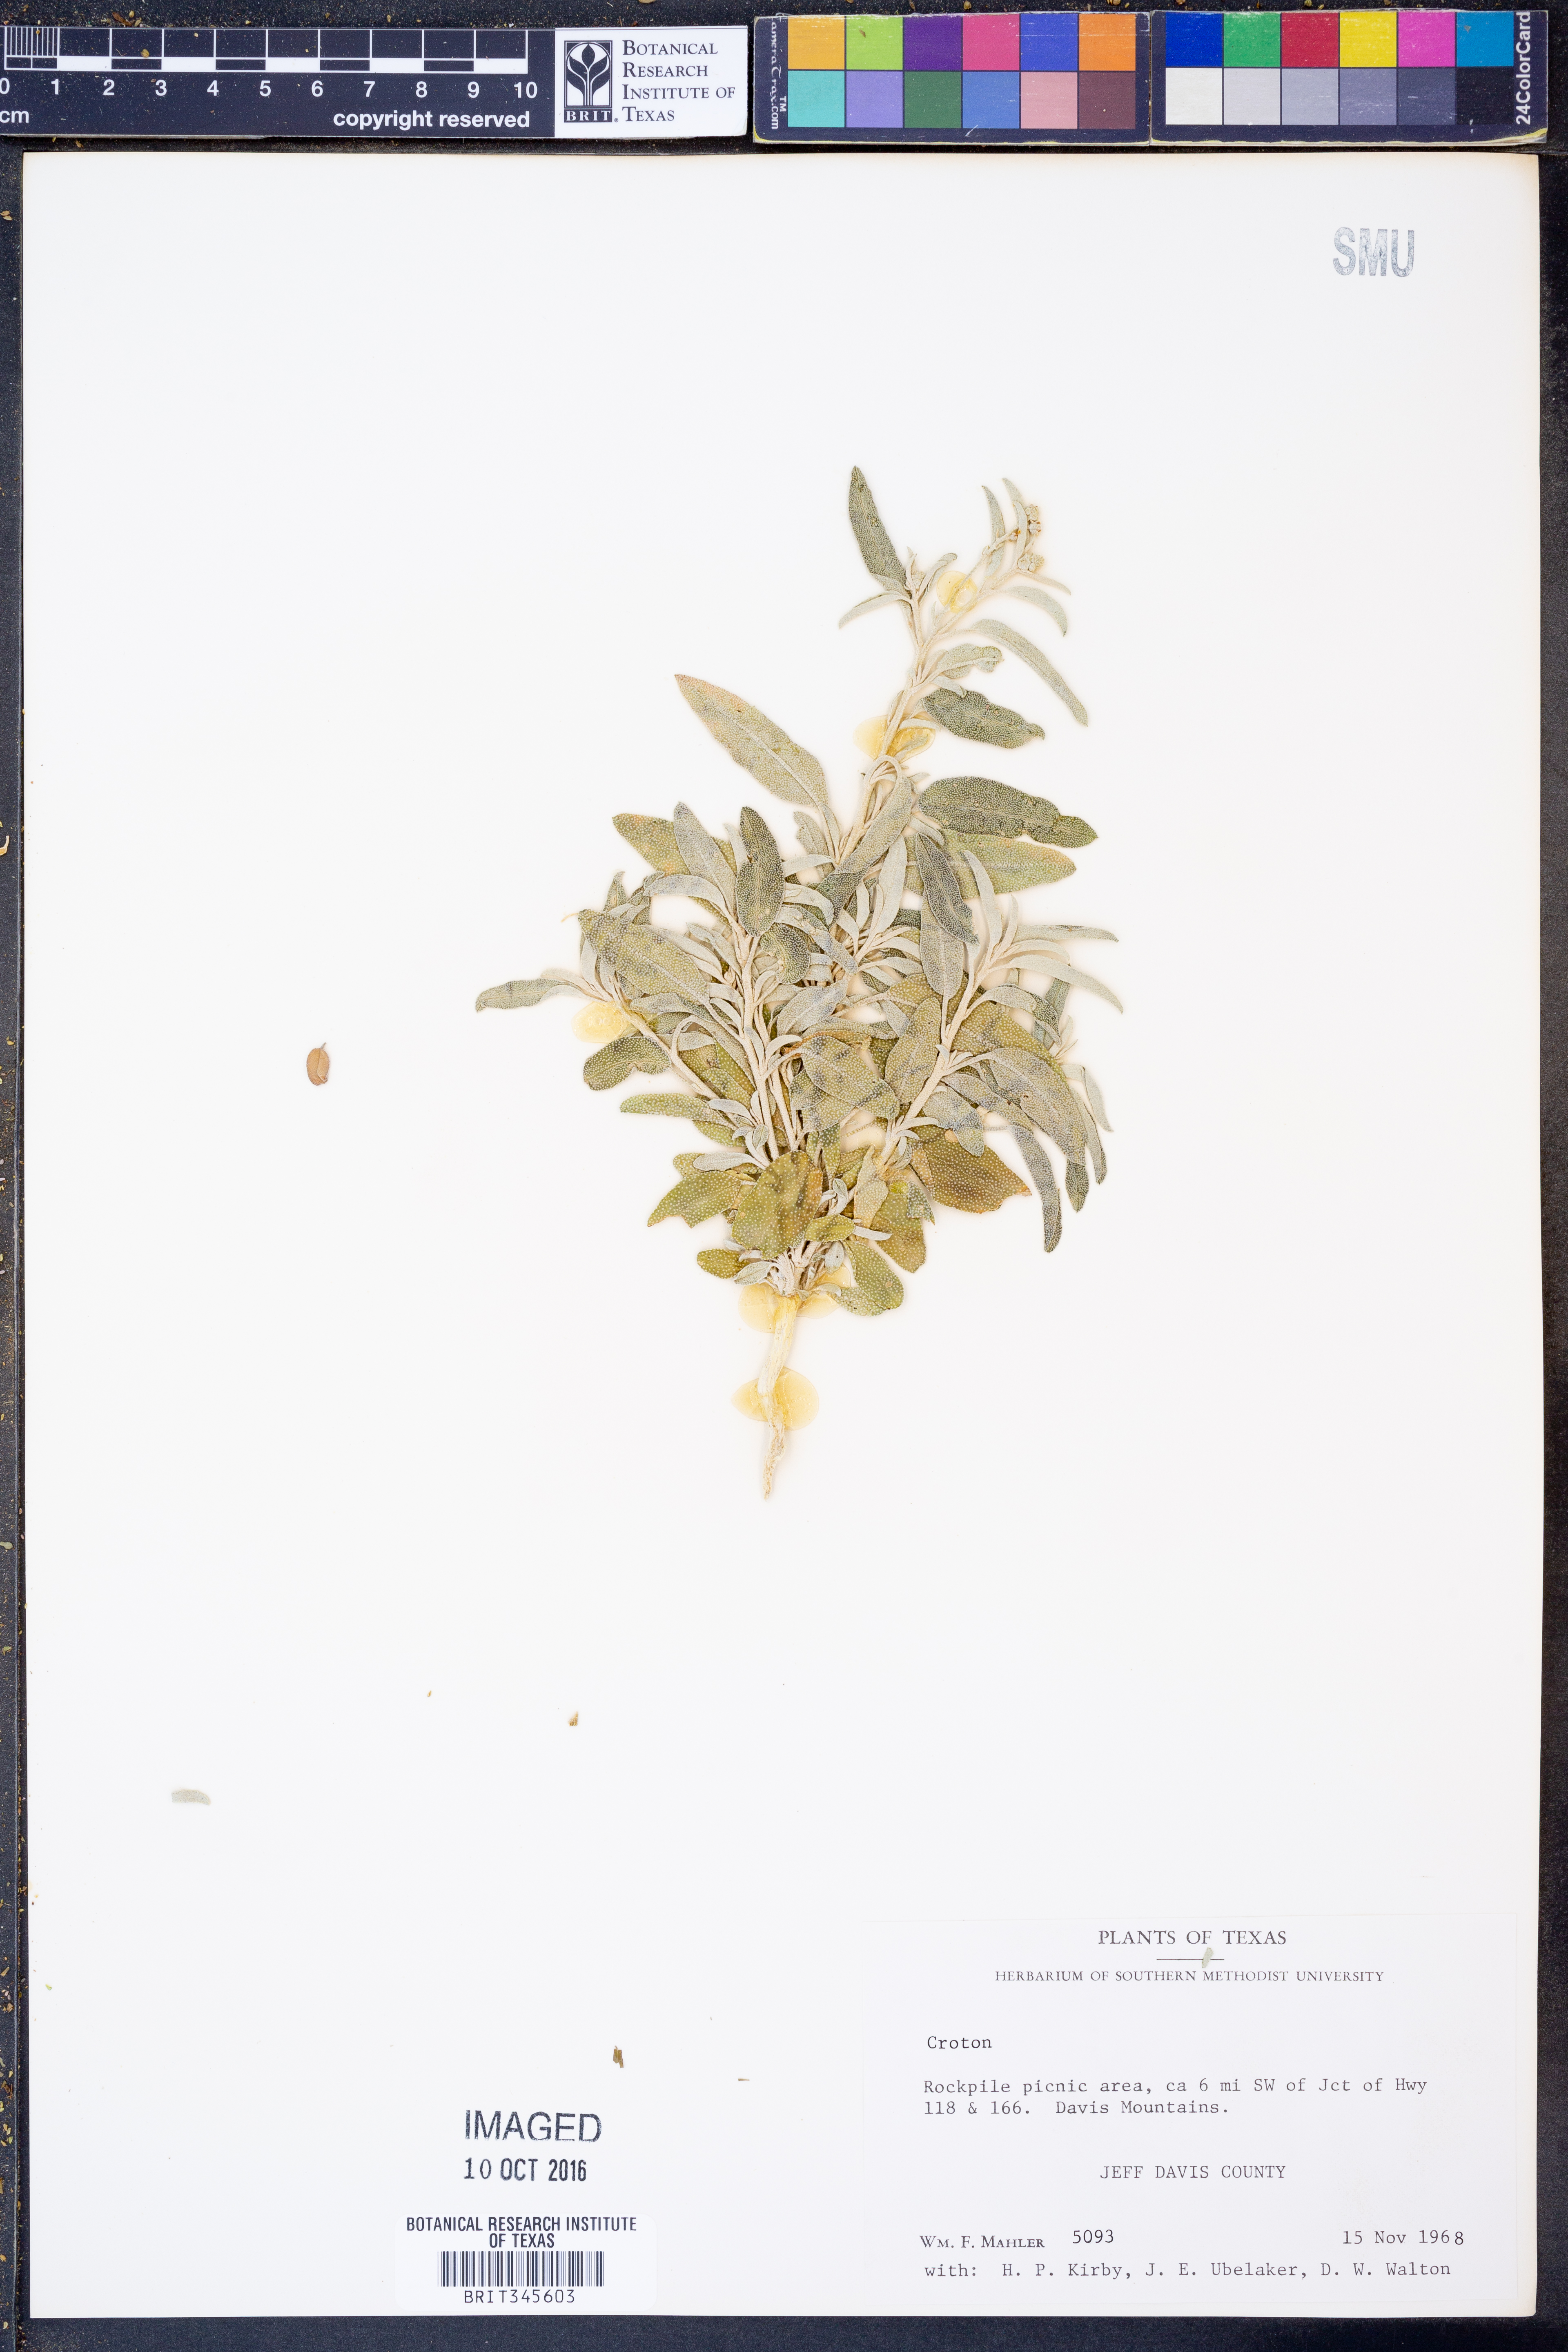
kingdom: Plantae
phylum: Tracheophyta
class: Magnoliopsida
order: Malpighiales
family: Euphorbiaceae
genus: Croton
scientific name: Croton
